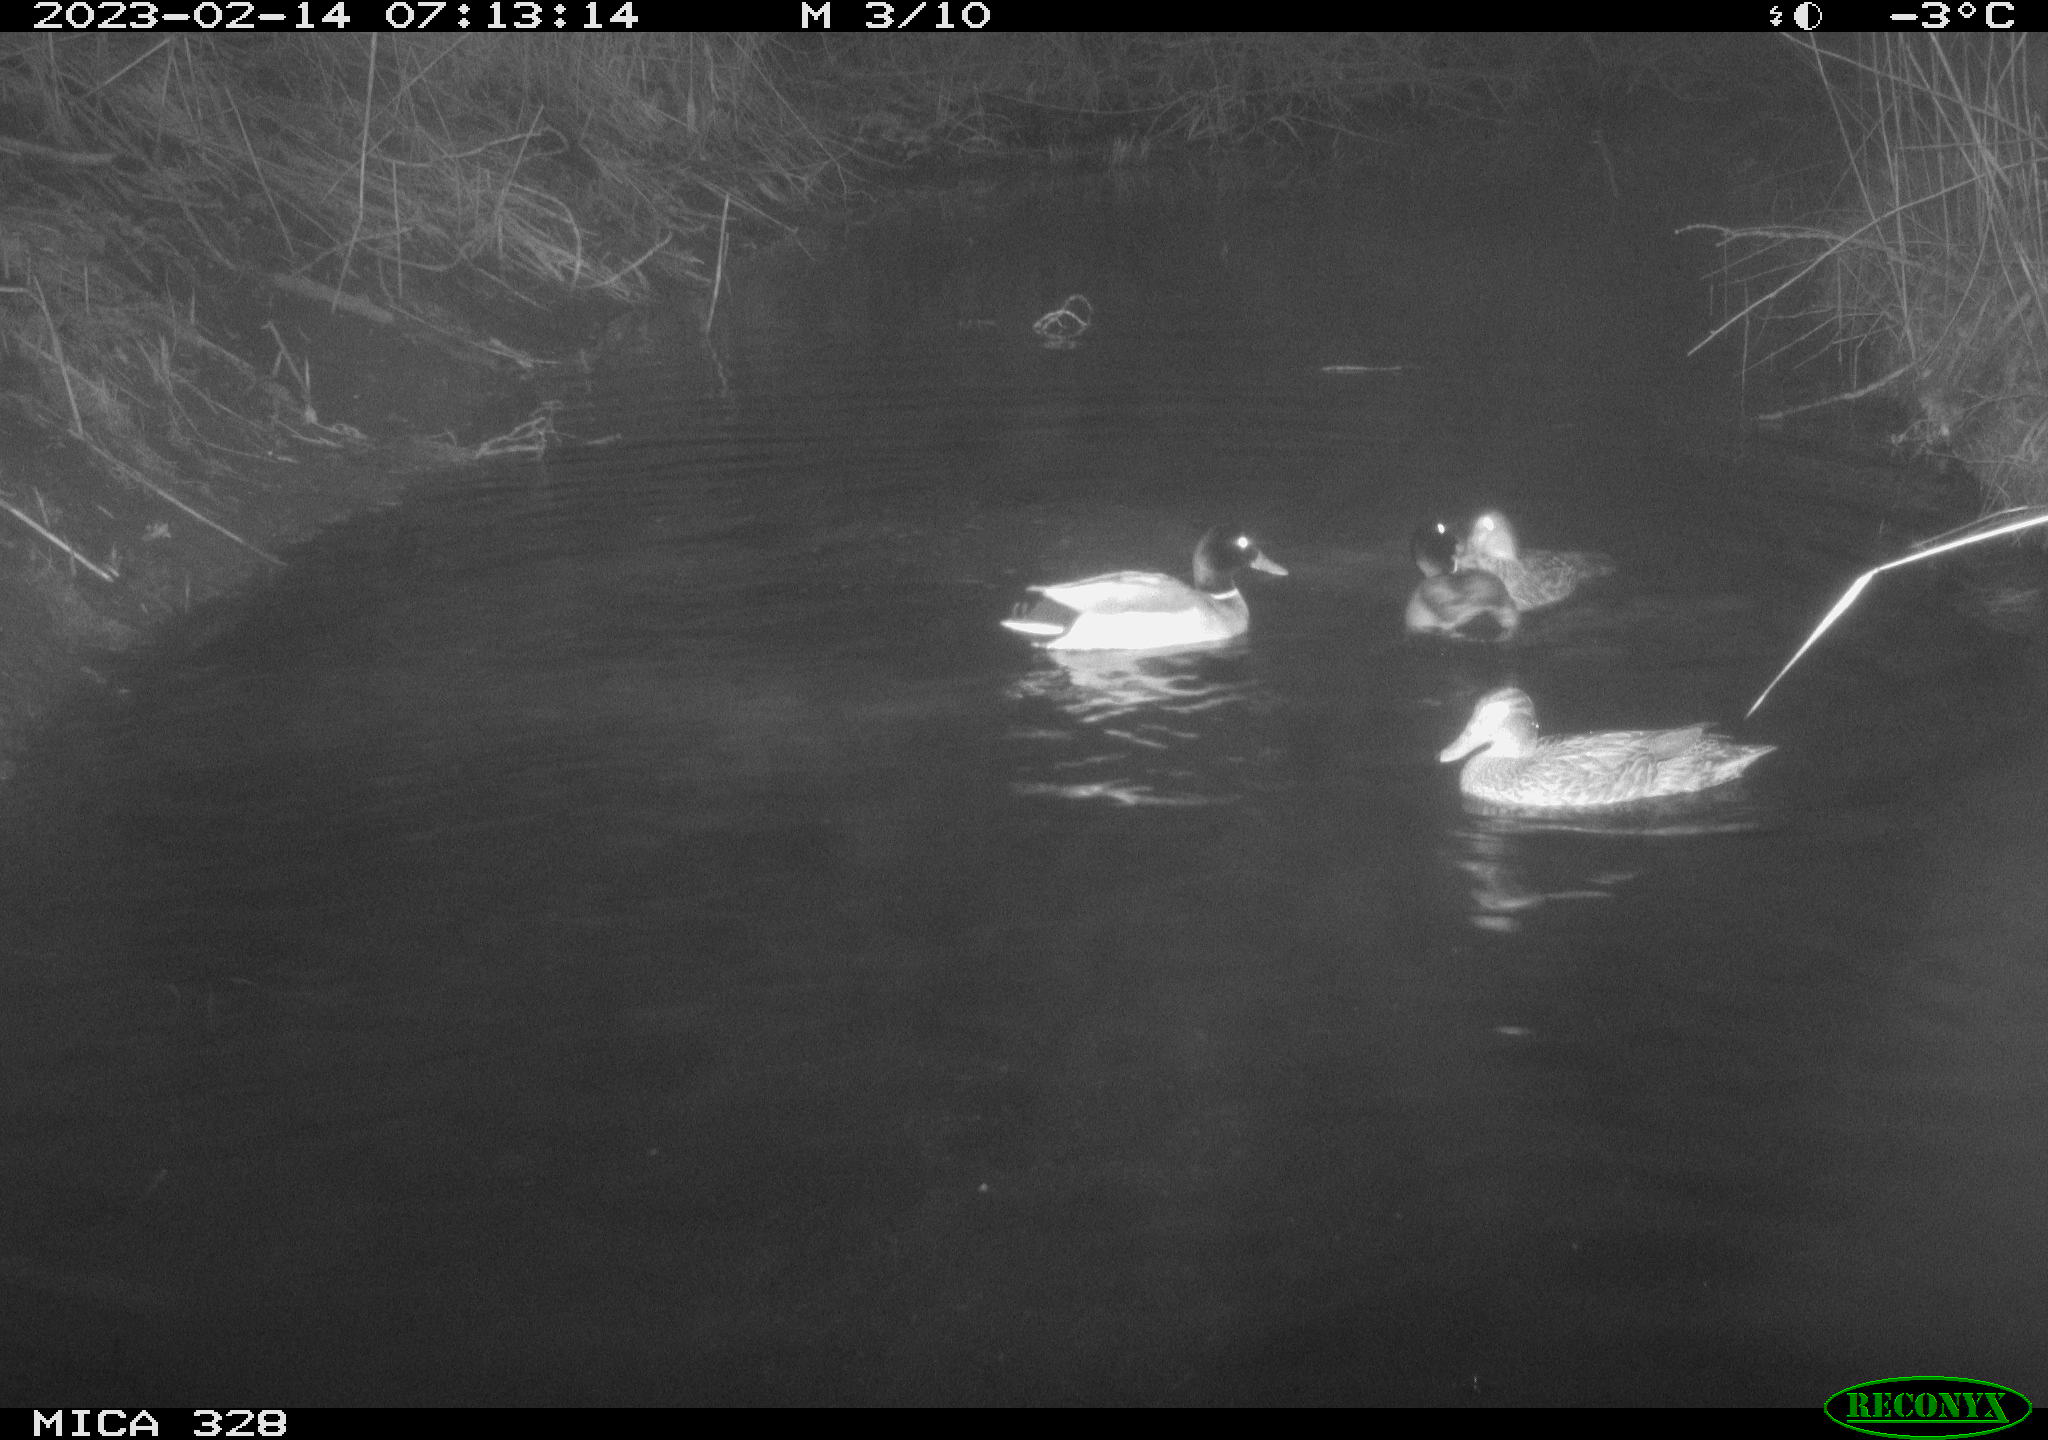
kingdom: Animalia
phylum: Chordata
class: Aves
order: Anseriformes
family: Anatidae
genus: Anas
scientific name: Anas
